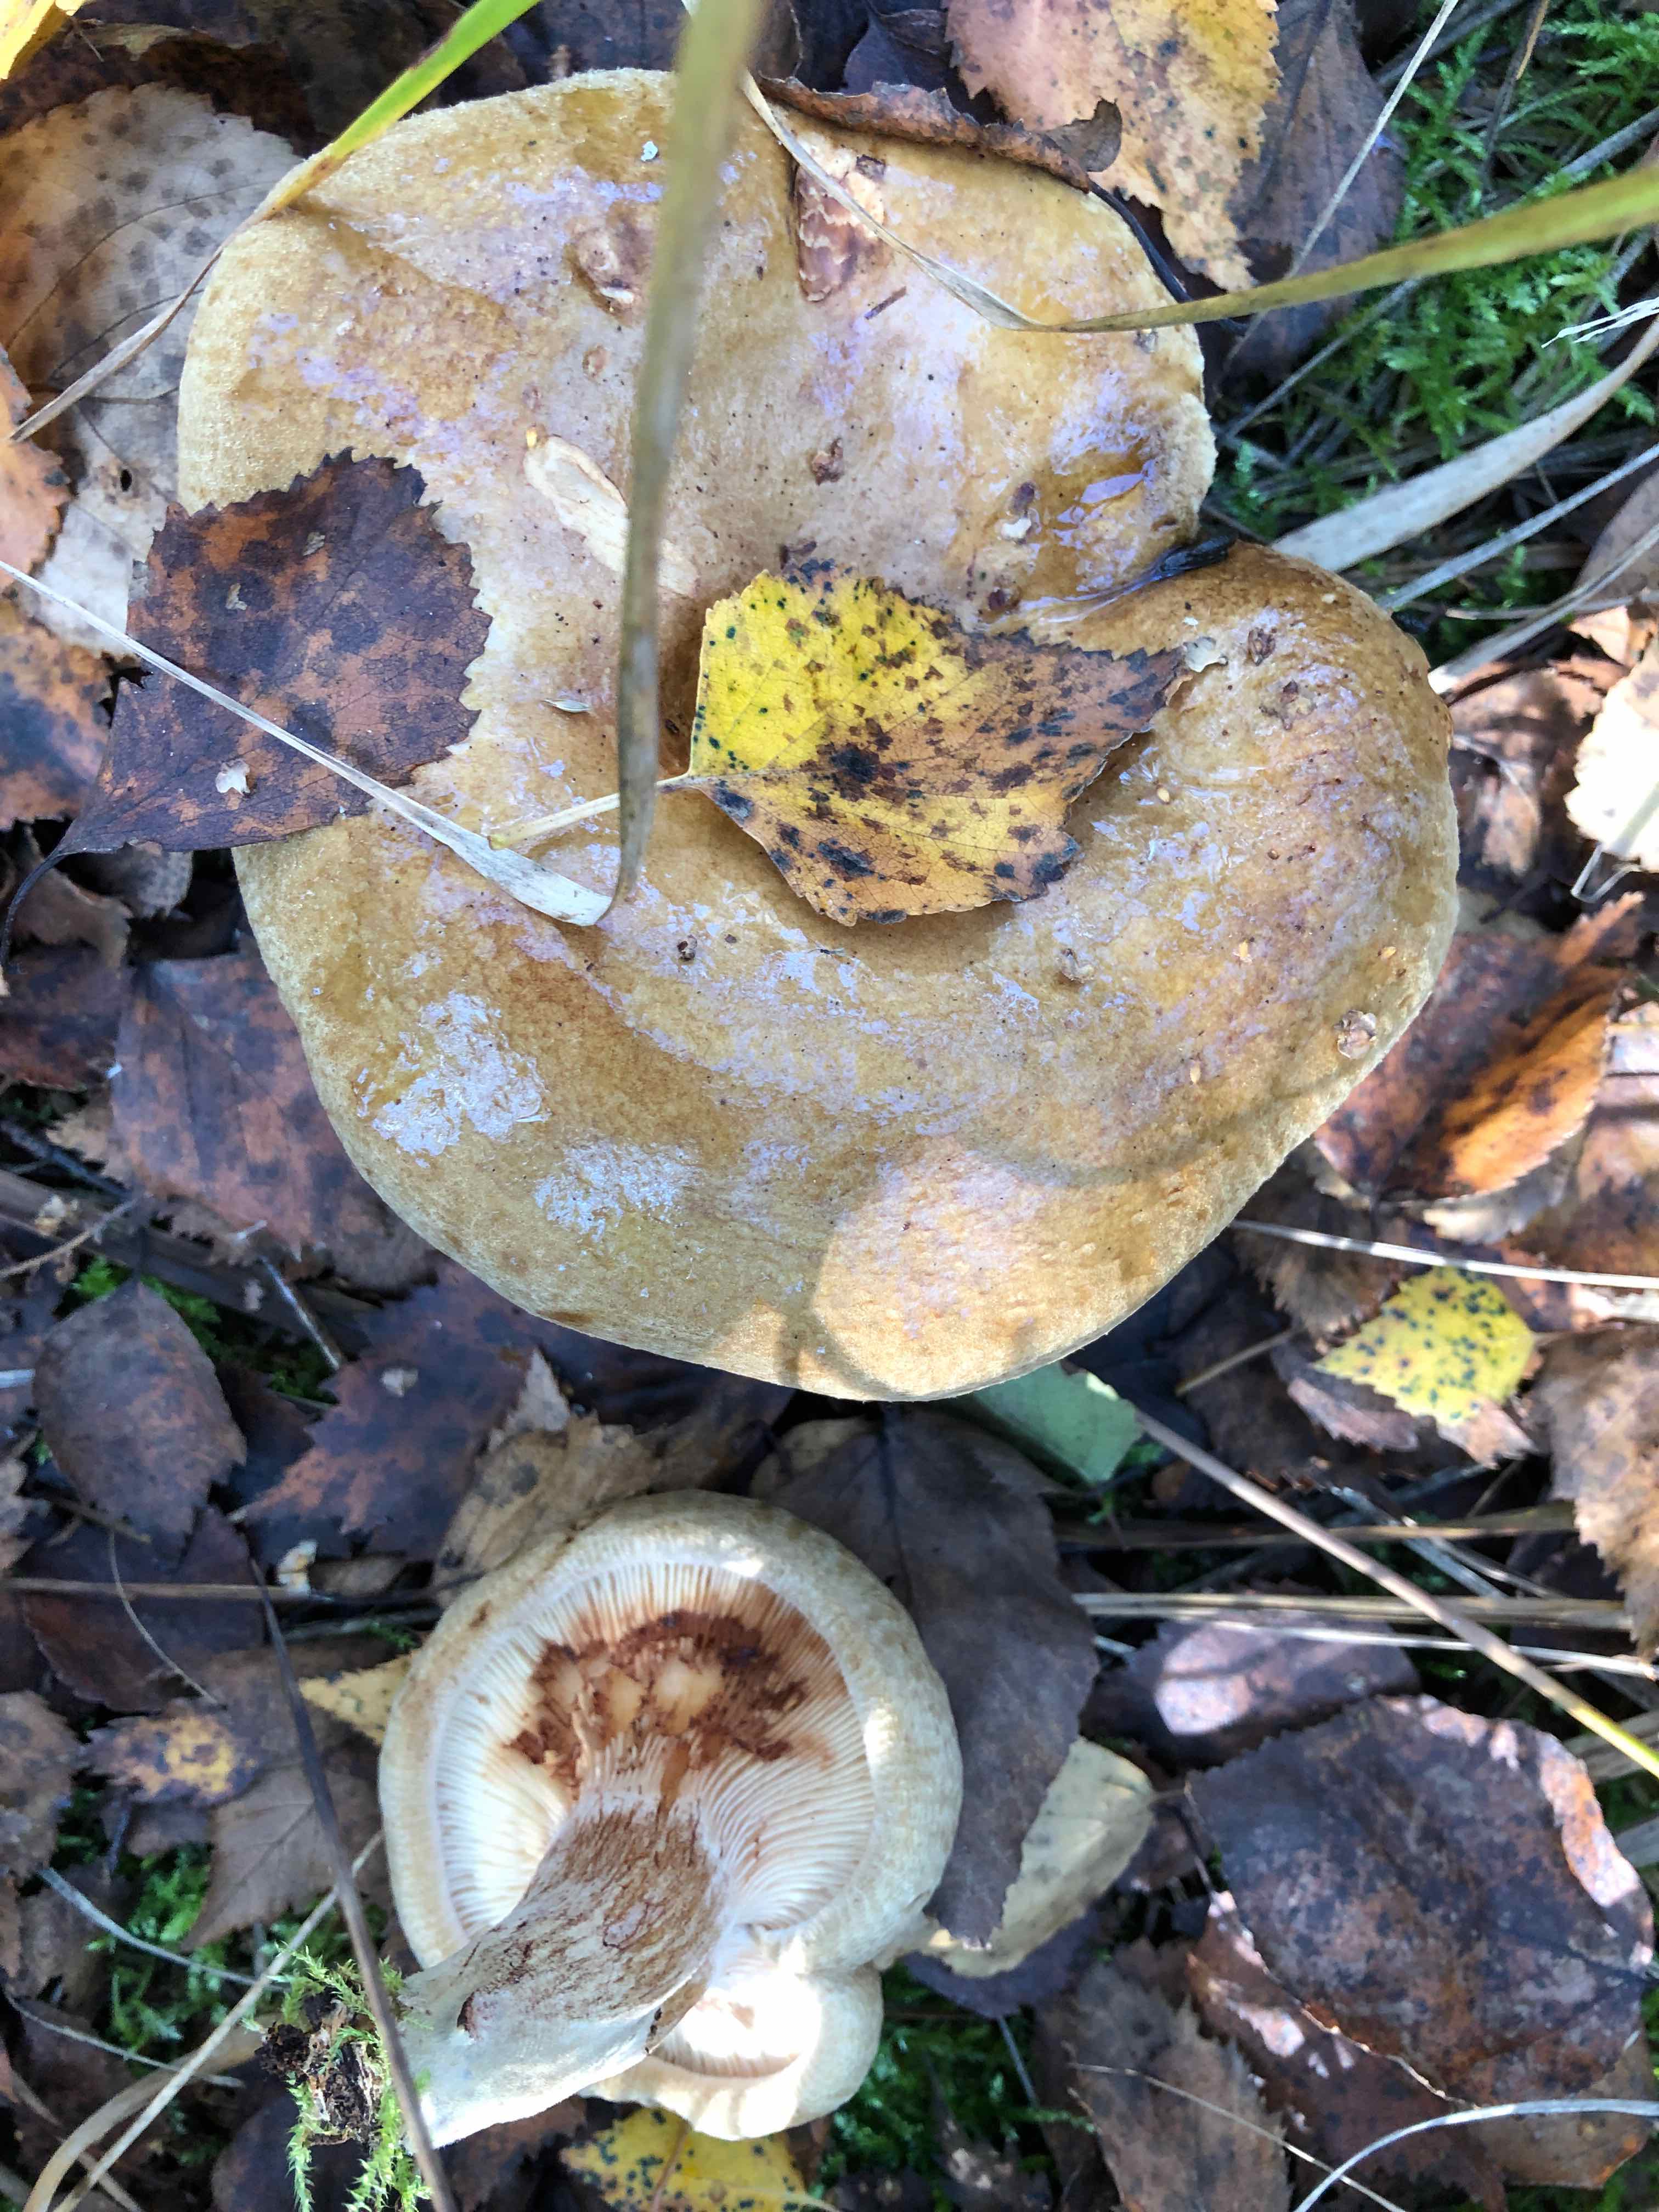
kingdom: Fungi
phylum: Basidiomycota
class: Agaricomycetes
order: Boletales
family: Paxillaceae
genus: Paxillus
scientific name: Paxillus involutus
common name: almindelig netbladhat
